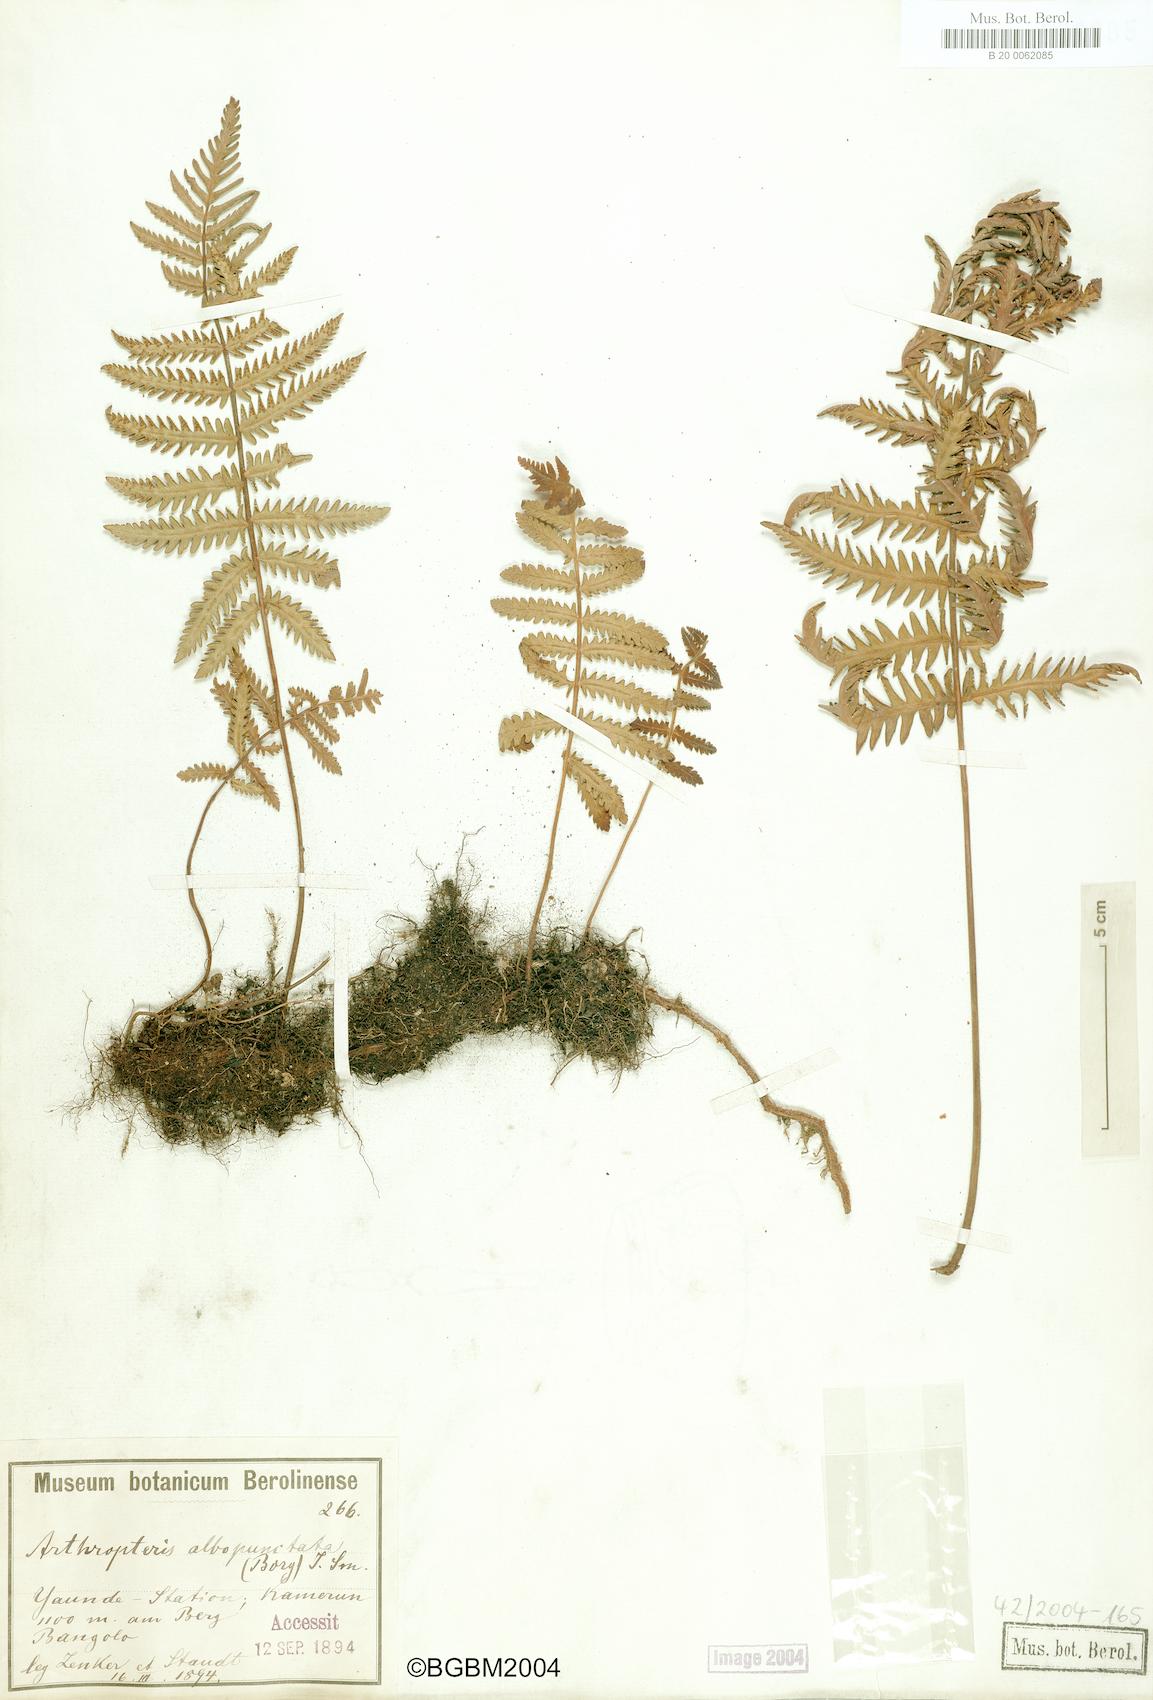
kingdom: Plantae
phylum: Tracheophyta
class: Polypodiopsida
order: Polypodiales
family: Tectariaceae
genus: Arthropteris
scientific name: Arthropteris orientalis
